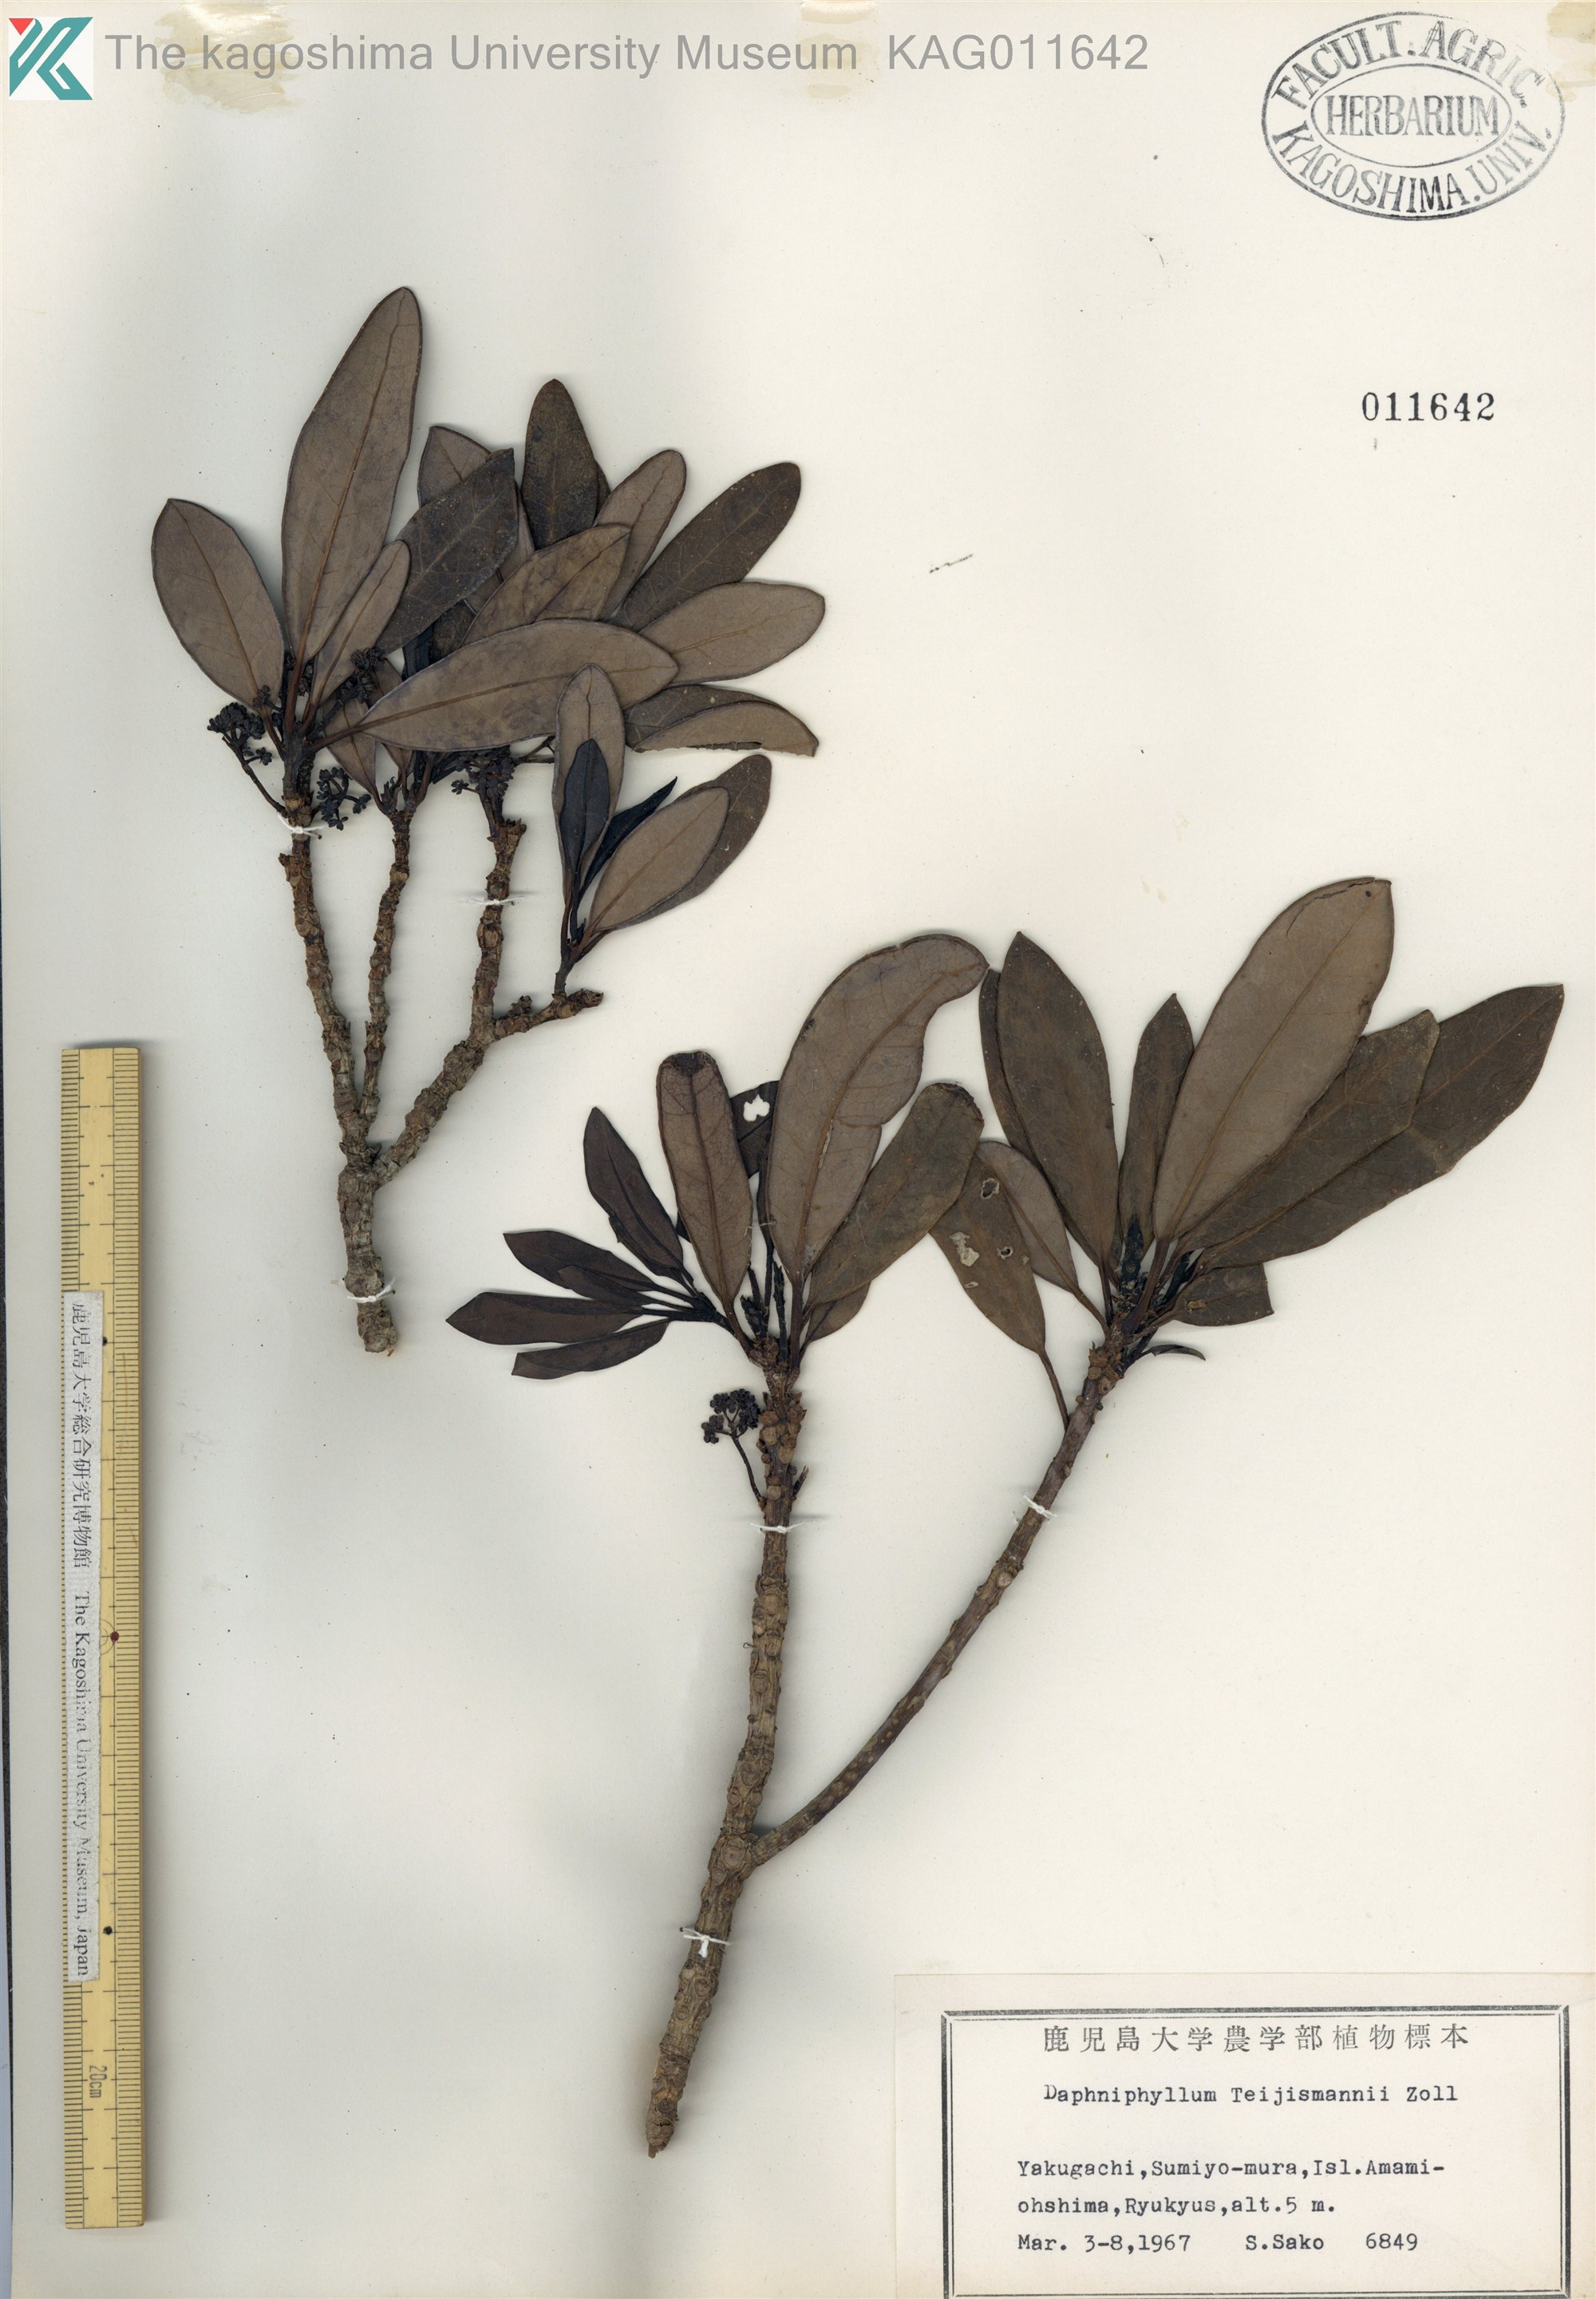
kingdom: Plantae
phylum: Tracheophyta
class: Magnoliopsida
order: Saxifragales
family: Daphniphyllaceae
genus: Daphniphyllum
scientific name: Daphniphyllum teijsmannii
